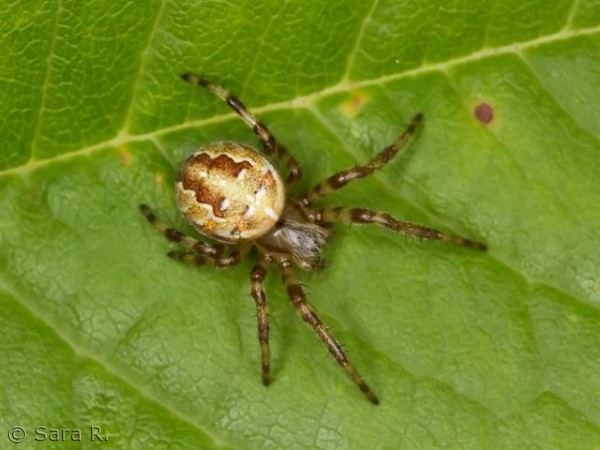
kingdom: Animalia
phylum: Arthropoda
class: Arachnida
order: Araneae
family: Araneidae
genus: Araneus
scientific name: Araneus diadematus
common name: Korsedderkop
